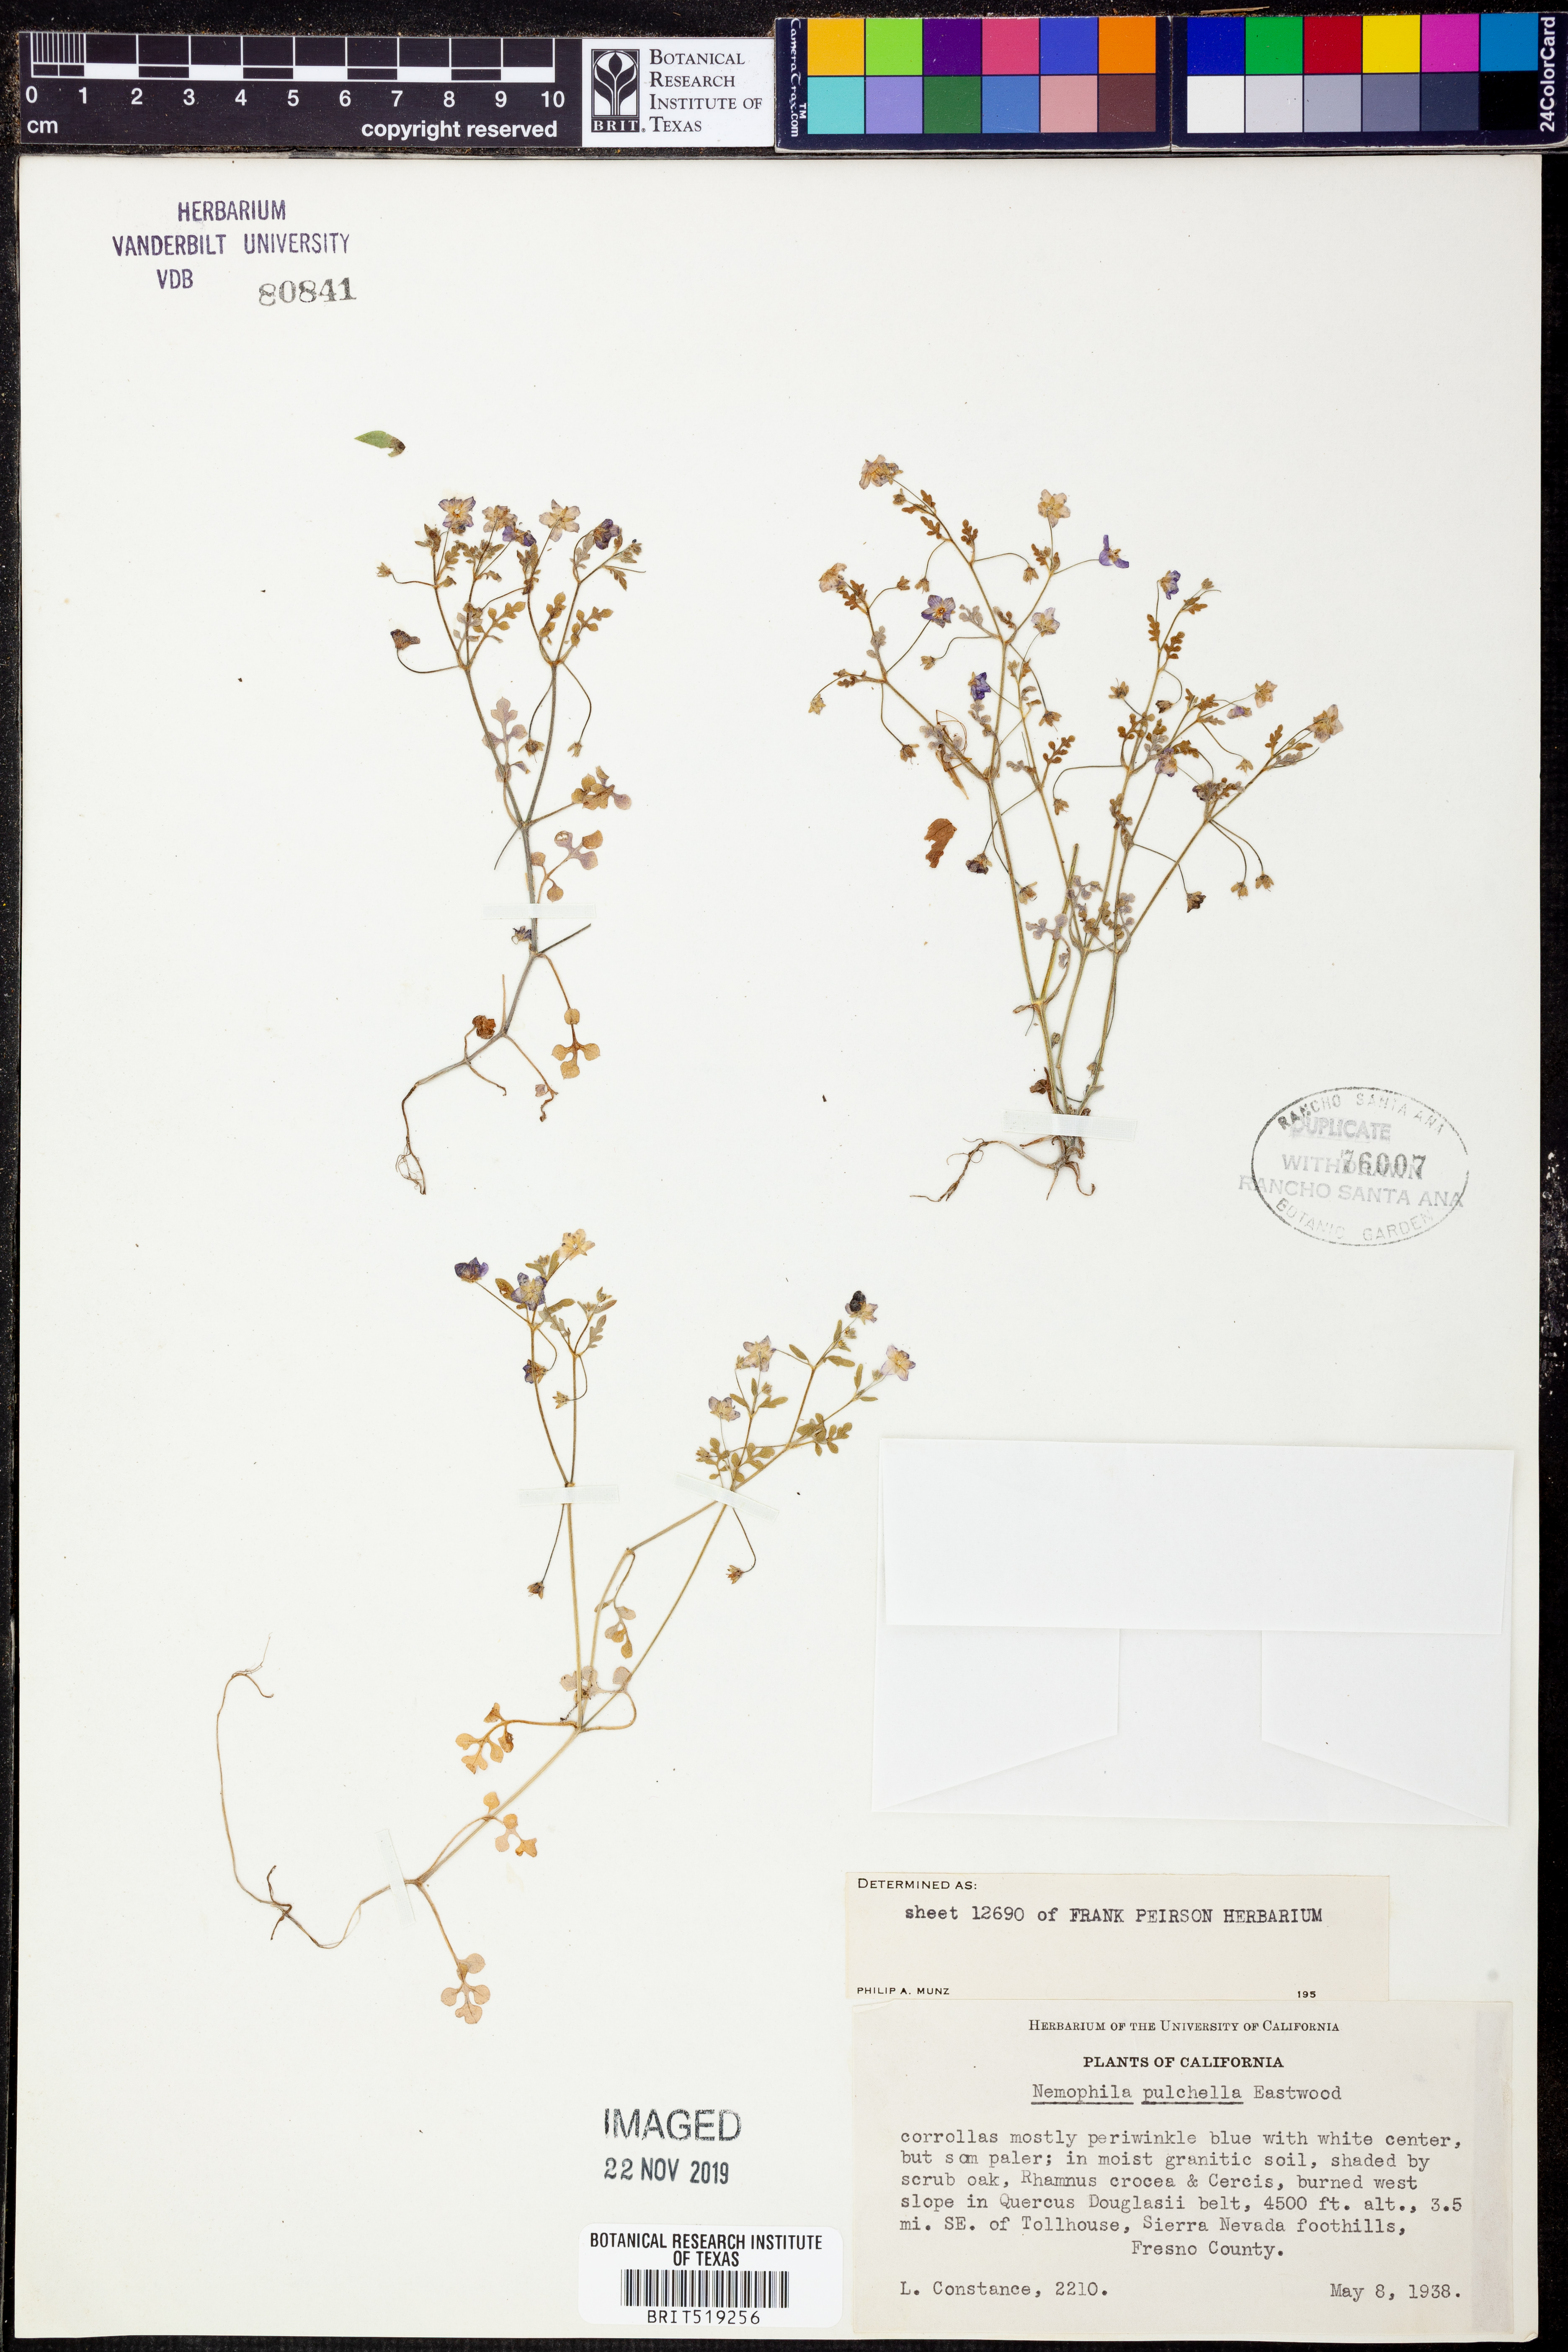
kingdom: Plantae
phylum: Tracheophyta
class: Magnoliopsida
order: Boraginales
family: Hydrophyllaceae
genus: Nemophila
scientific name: Nemophila pulchella
